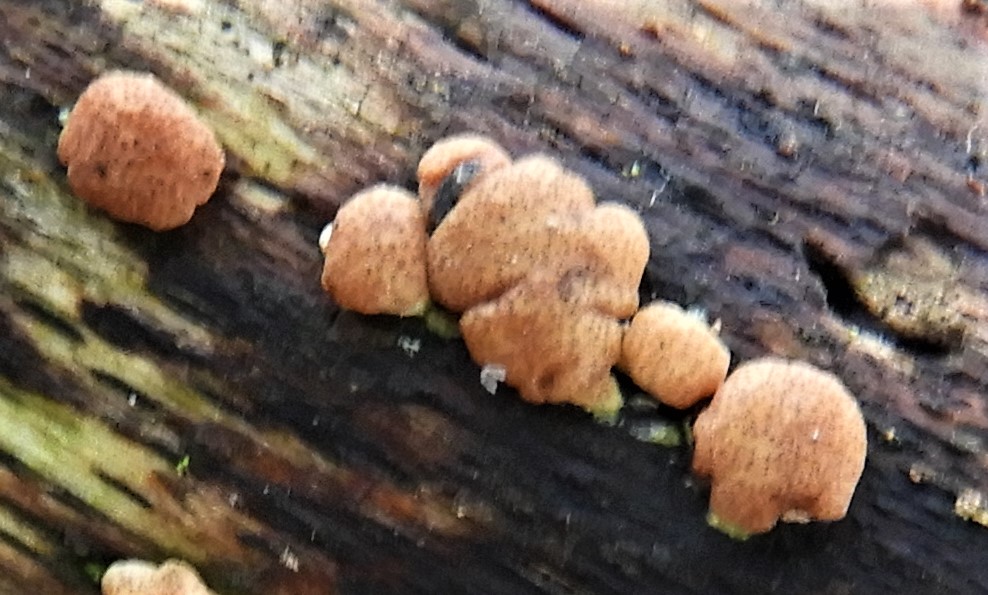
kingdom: Fungi
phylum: Ascomycota
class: Sordariomycetes
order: Hypocreales
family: Hypocreaceae
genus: Trichoderma
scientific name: Trichoderma europaeum
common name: rosabrun kødkerne
